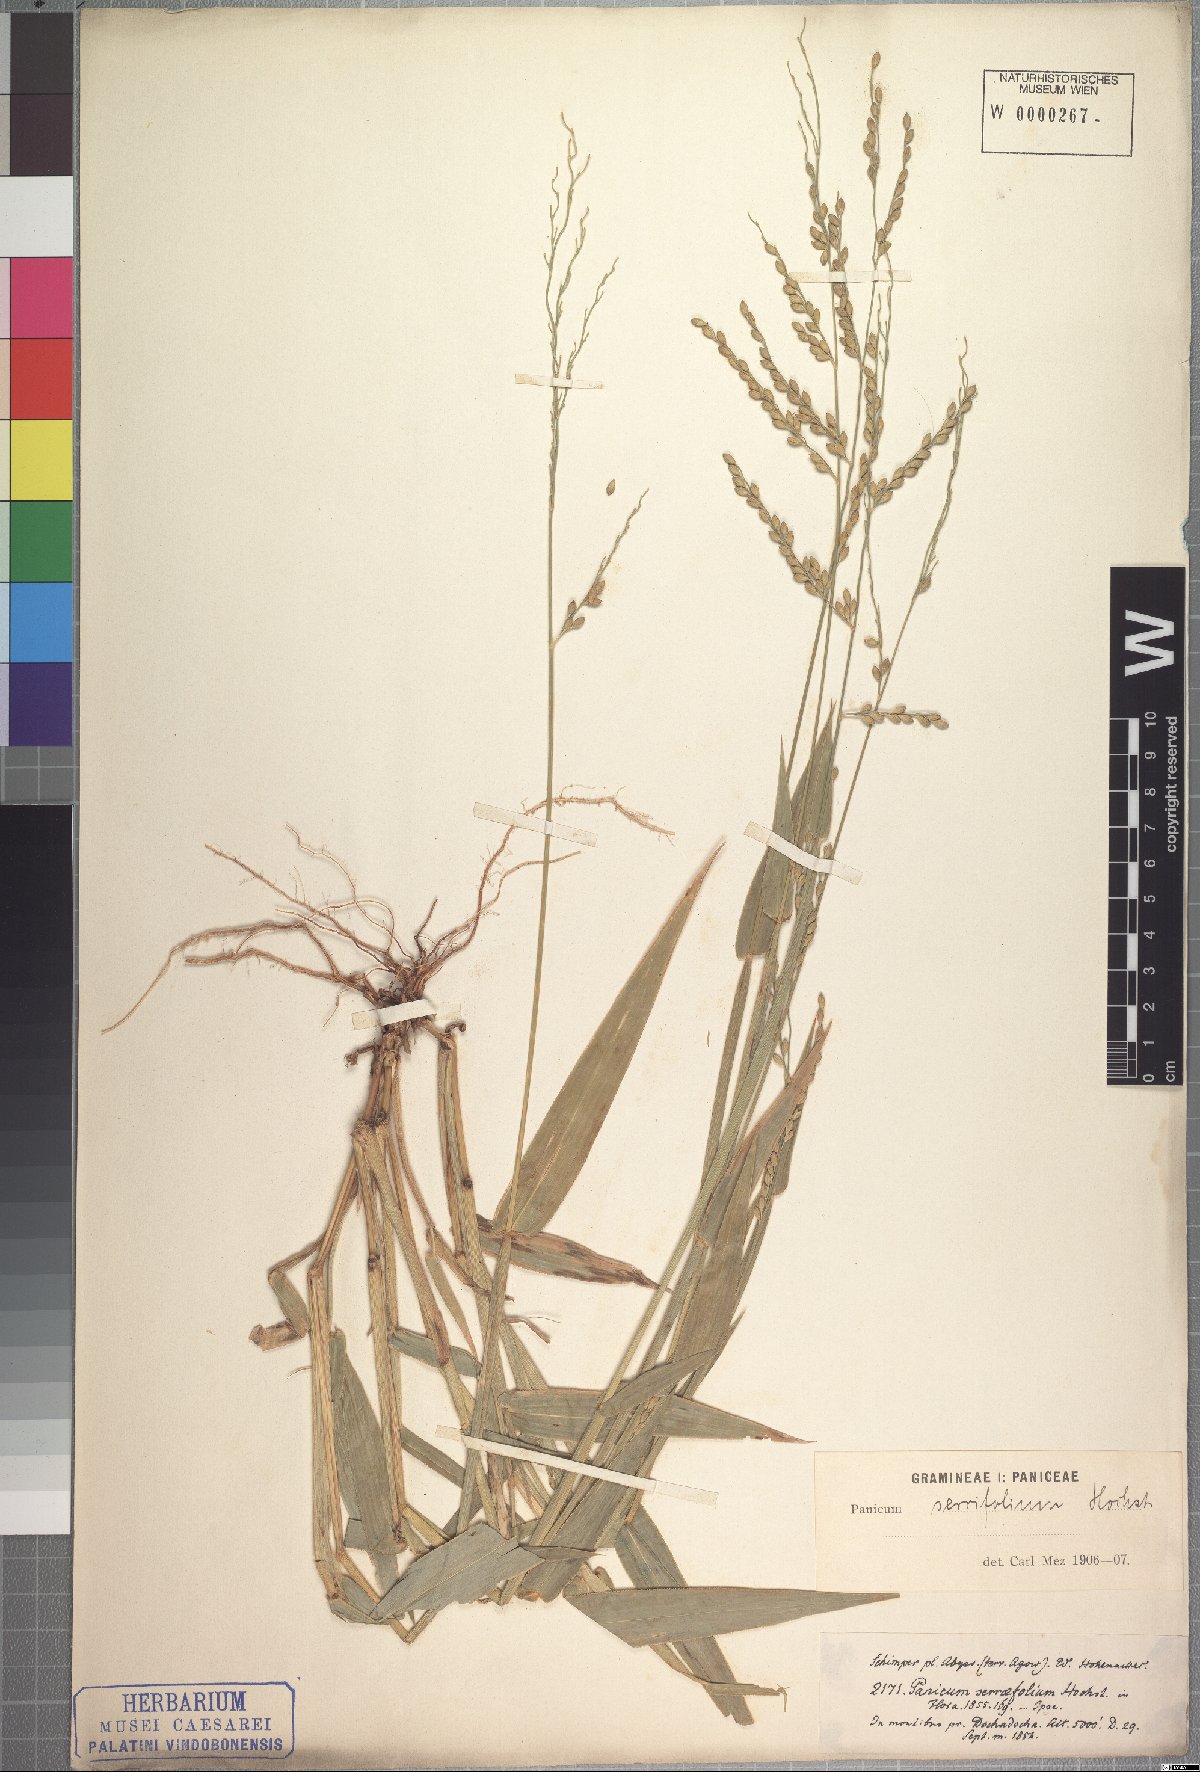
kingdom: Plantae
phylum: Tracheophyta
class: Liliopsida
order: Poales
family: Poaceae
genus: Urochloa
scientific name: Urochloa serrifolia
